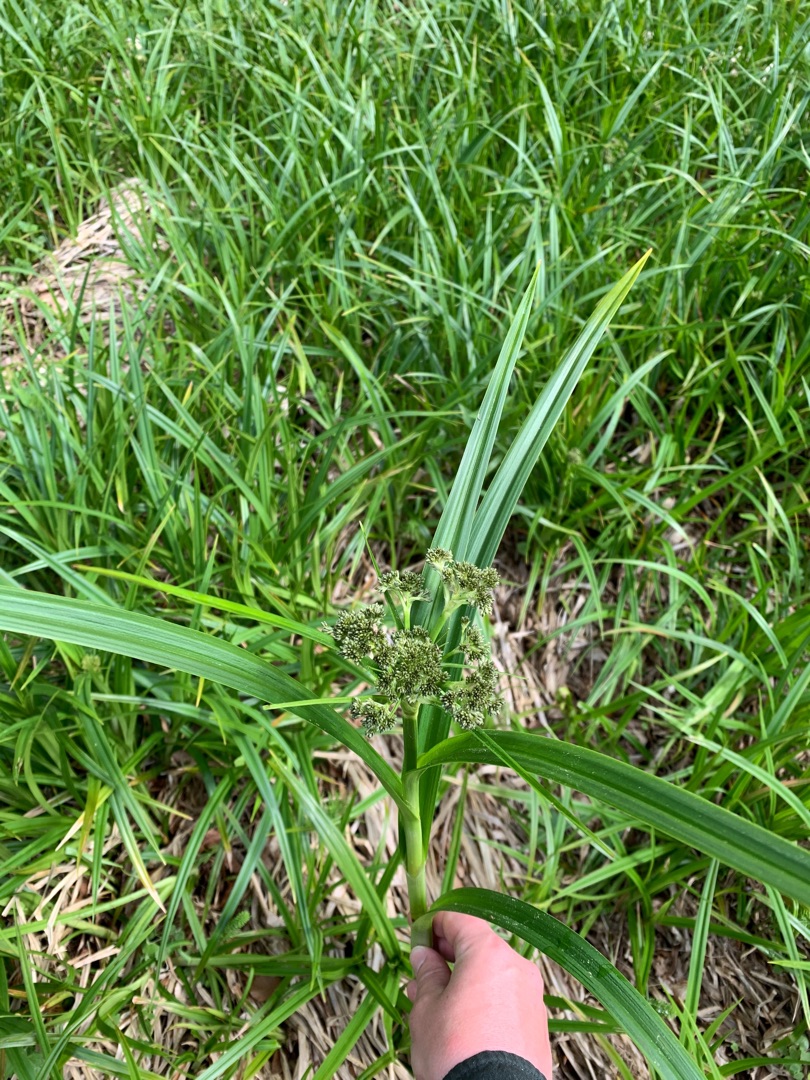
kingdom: Plantae
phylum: Tracheophyta
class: Liliopsida
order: Poales
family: Cyperaceae
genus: Scirpus
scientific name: Scirpus sylvaticus
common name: Skov-kogleaks
